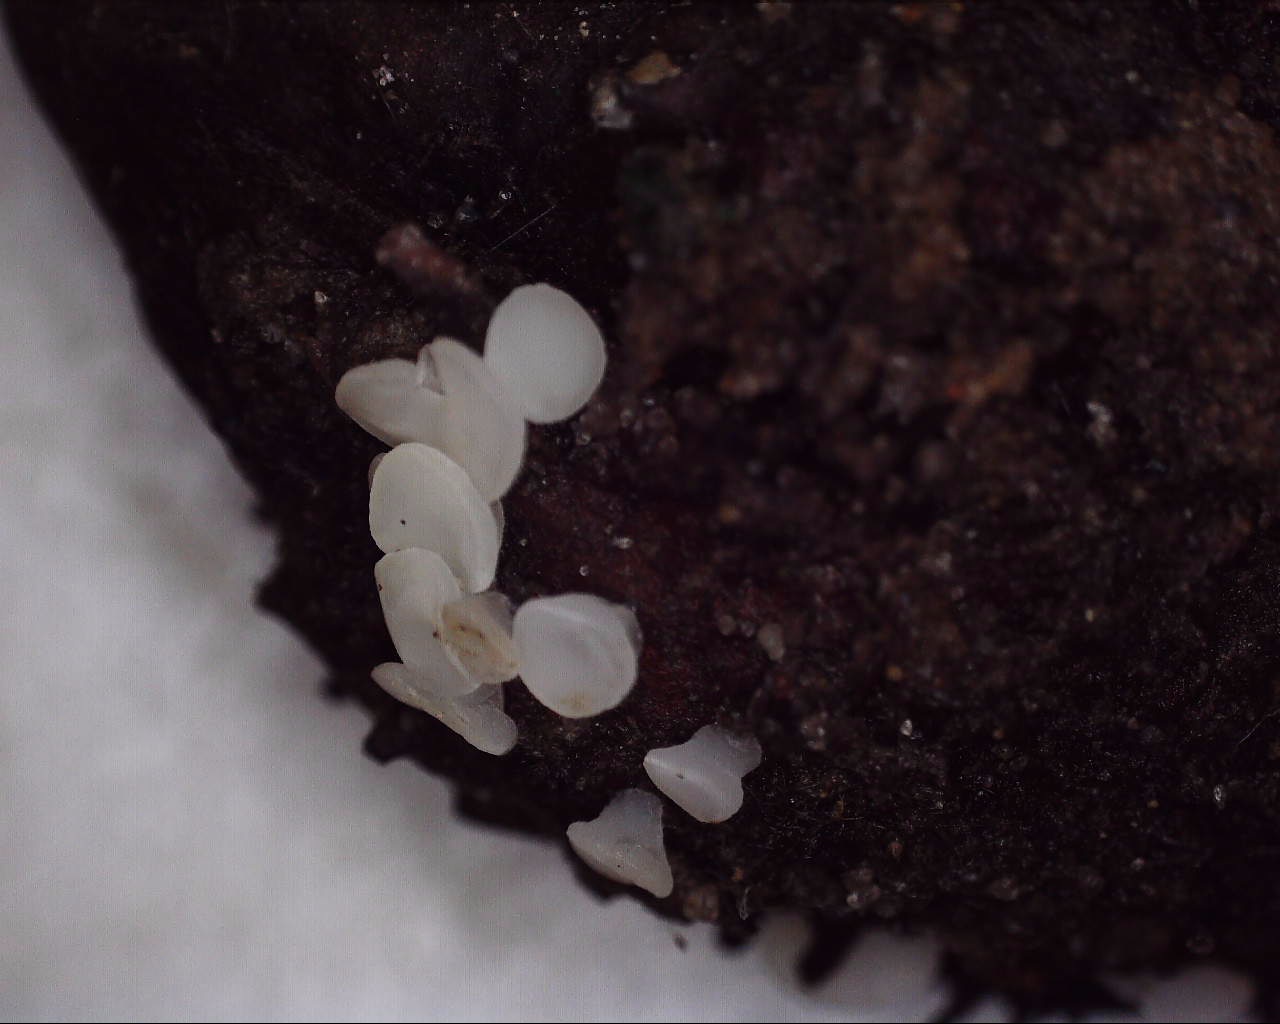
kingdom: Fungi
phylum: Ascomycota
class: Leotiomycetes
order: Helotiales
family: Helotiaceae
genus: Hymenoscyphus
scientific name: Hymenoscyphus fagineus
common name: vellugtende stilkskive
